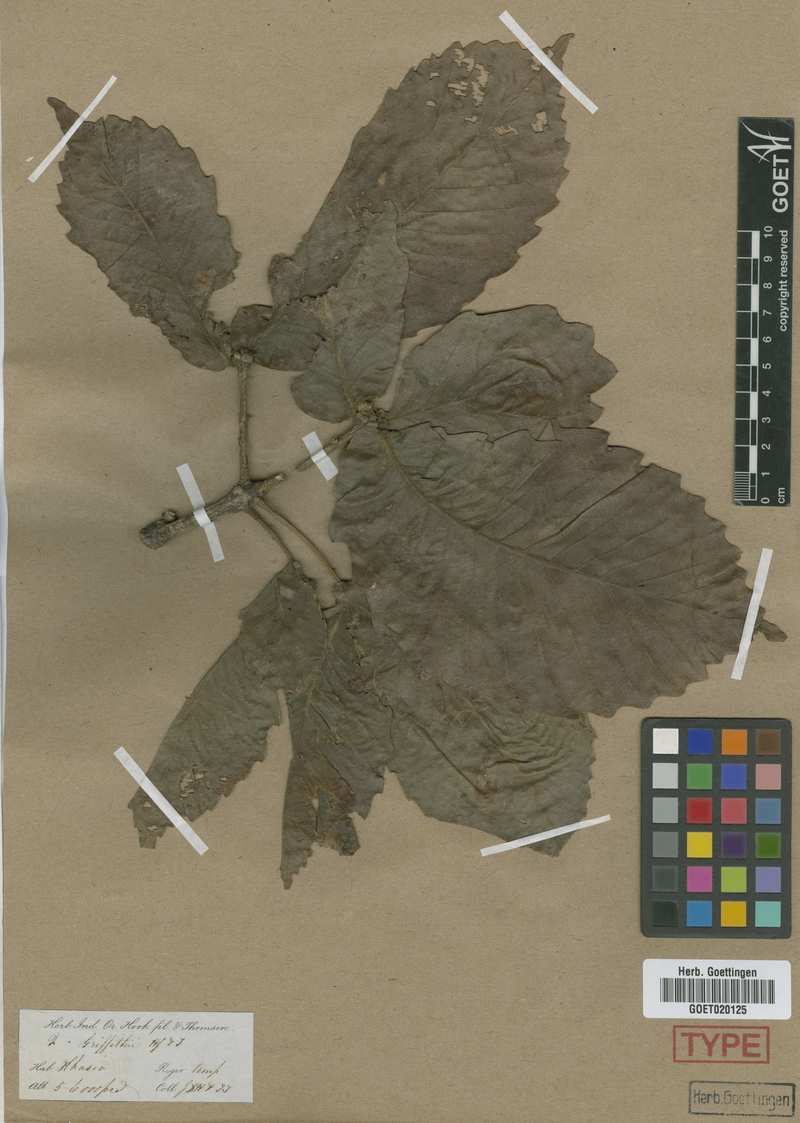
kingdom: Plantae
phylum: Tracheophyta
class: Magnoliopsida
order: Fagales
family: Fagaceae
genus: Quercus
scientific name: Quercus griffithii
